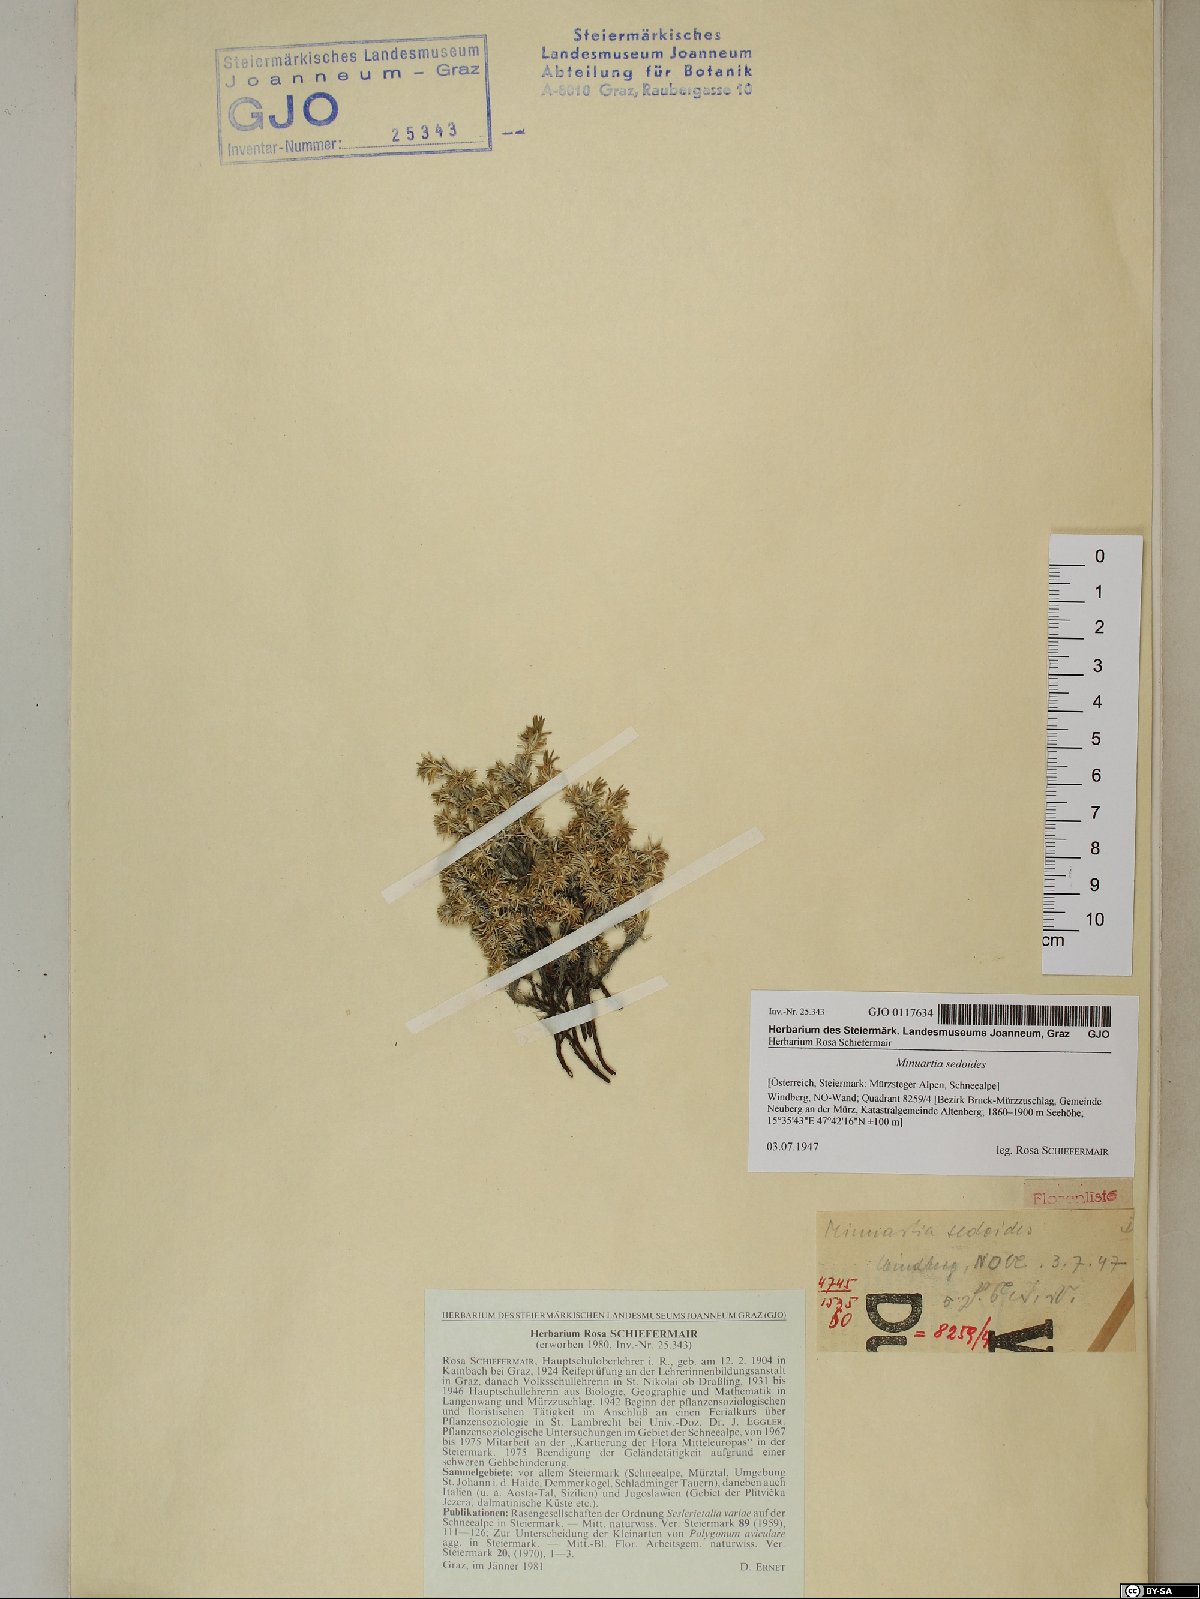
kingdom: Plantae
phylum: Tracheophyta
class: Magnoliopsida
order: Caryophyllales
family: Caryophyllaceae
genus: Cherleria
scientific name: Cherleria sedoides
